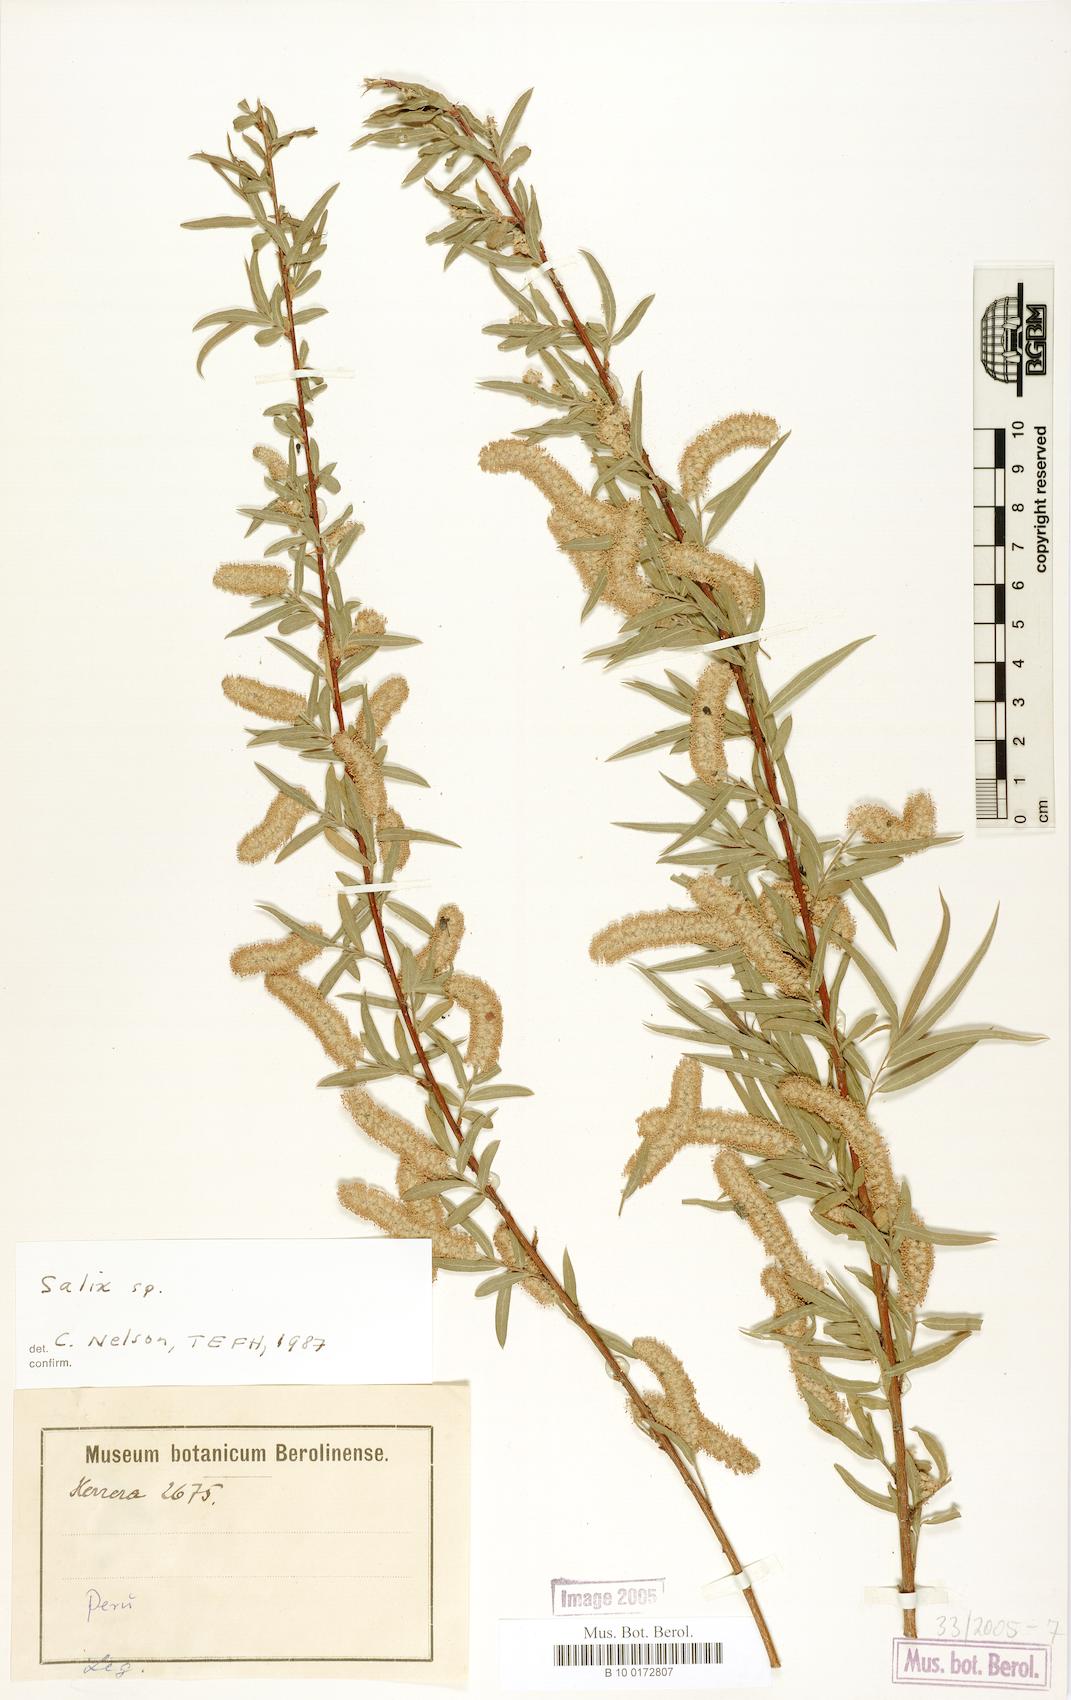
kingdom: Plantae
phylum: Tracheophyta
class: Magnoliopsida
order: Malpighiales
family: Salicaceae
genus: Salix
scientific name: Salix humboldtiana
